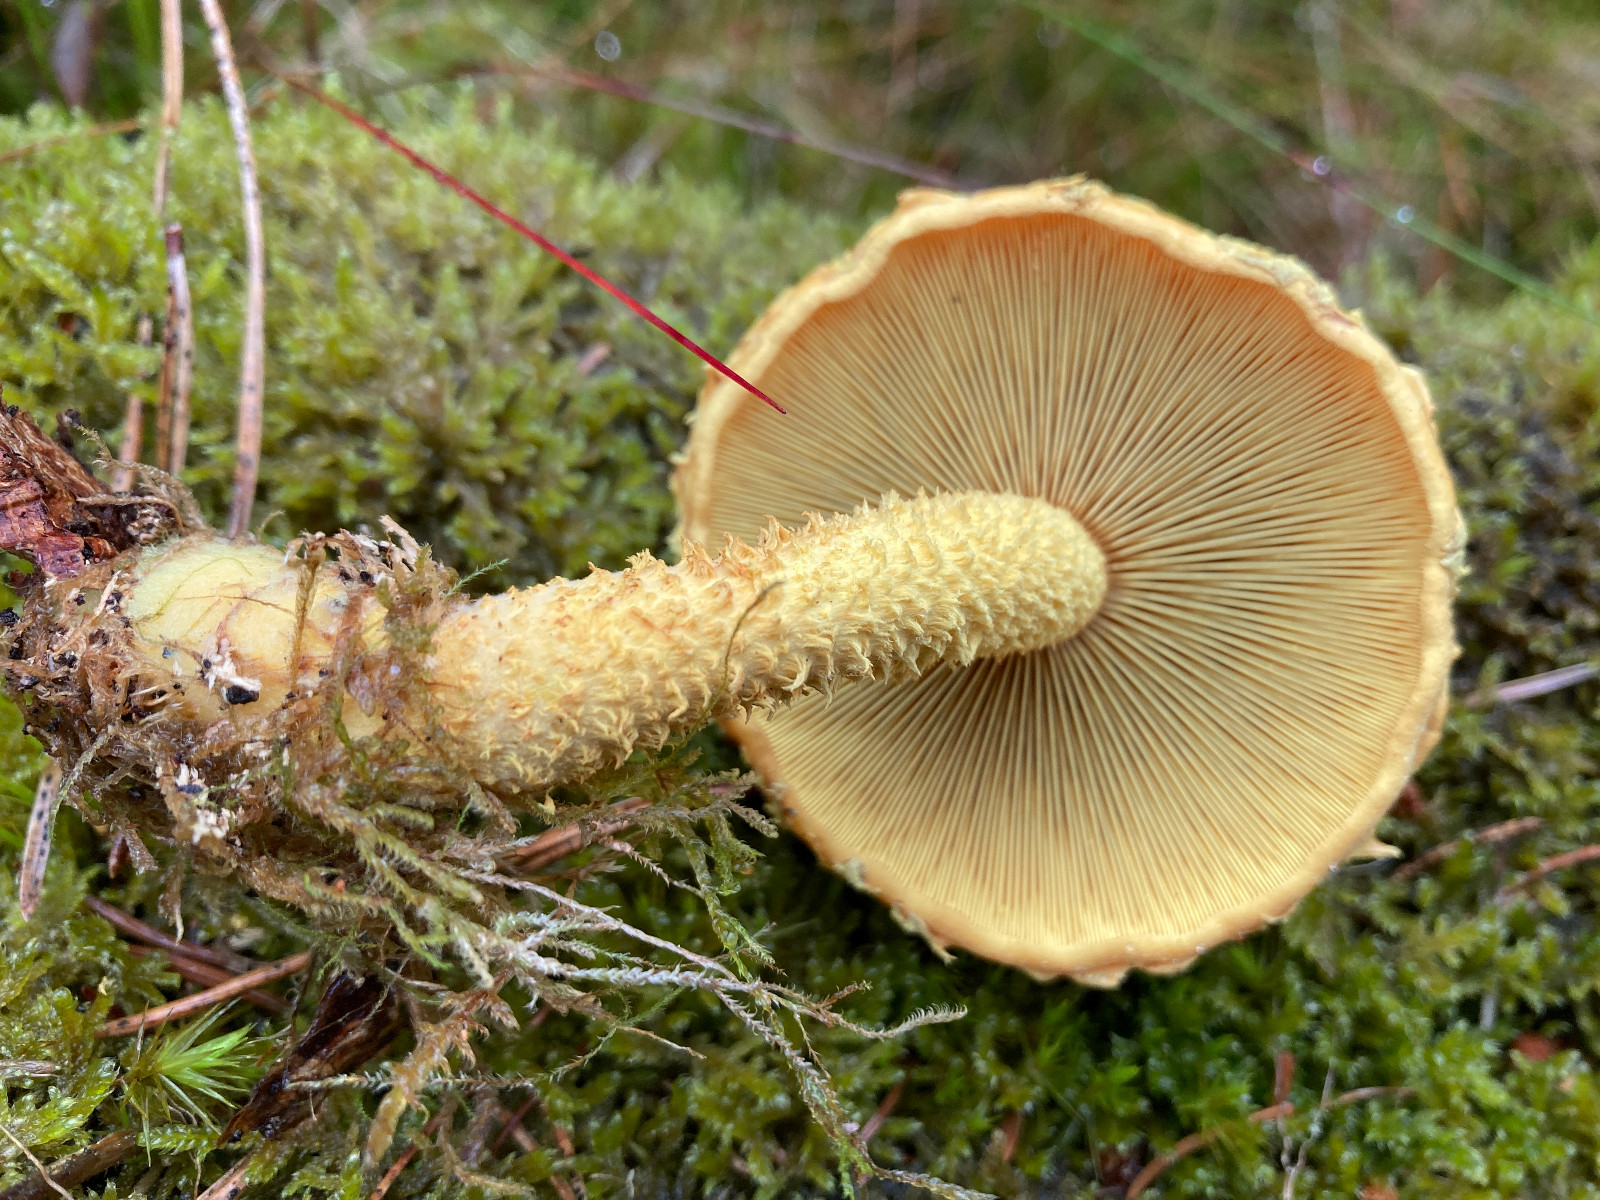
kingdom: Fungi
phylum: Basidiomycota
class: Agaricomycetes
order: Agaricales
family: Strophariaceae
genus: Pholiota
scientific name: Pholiota flammans
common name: flamme-skælhat
